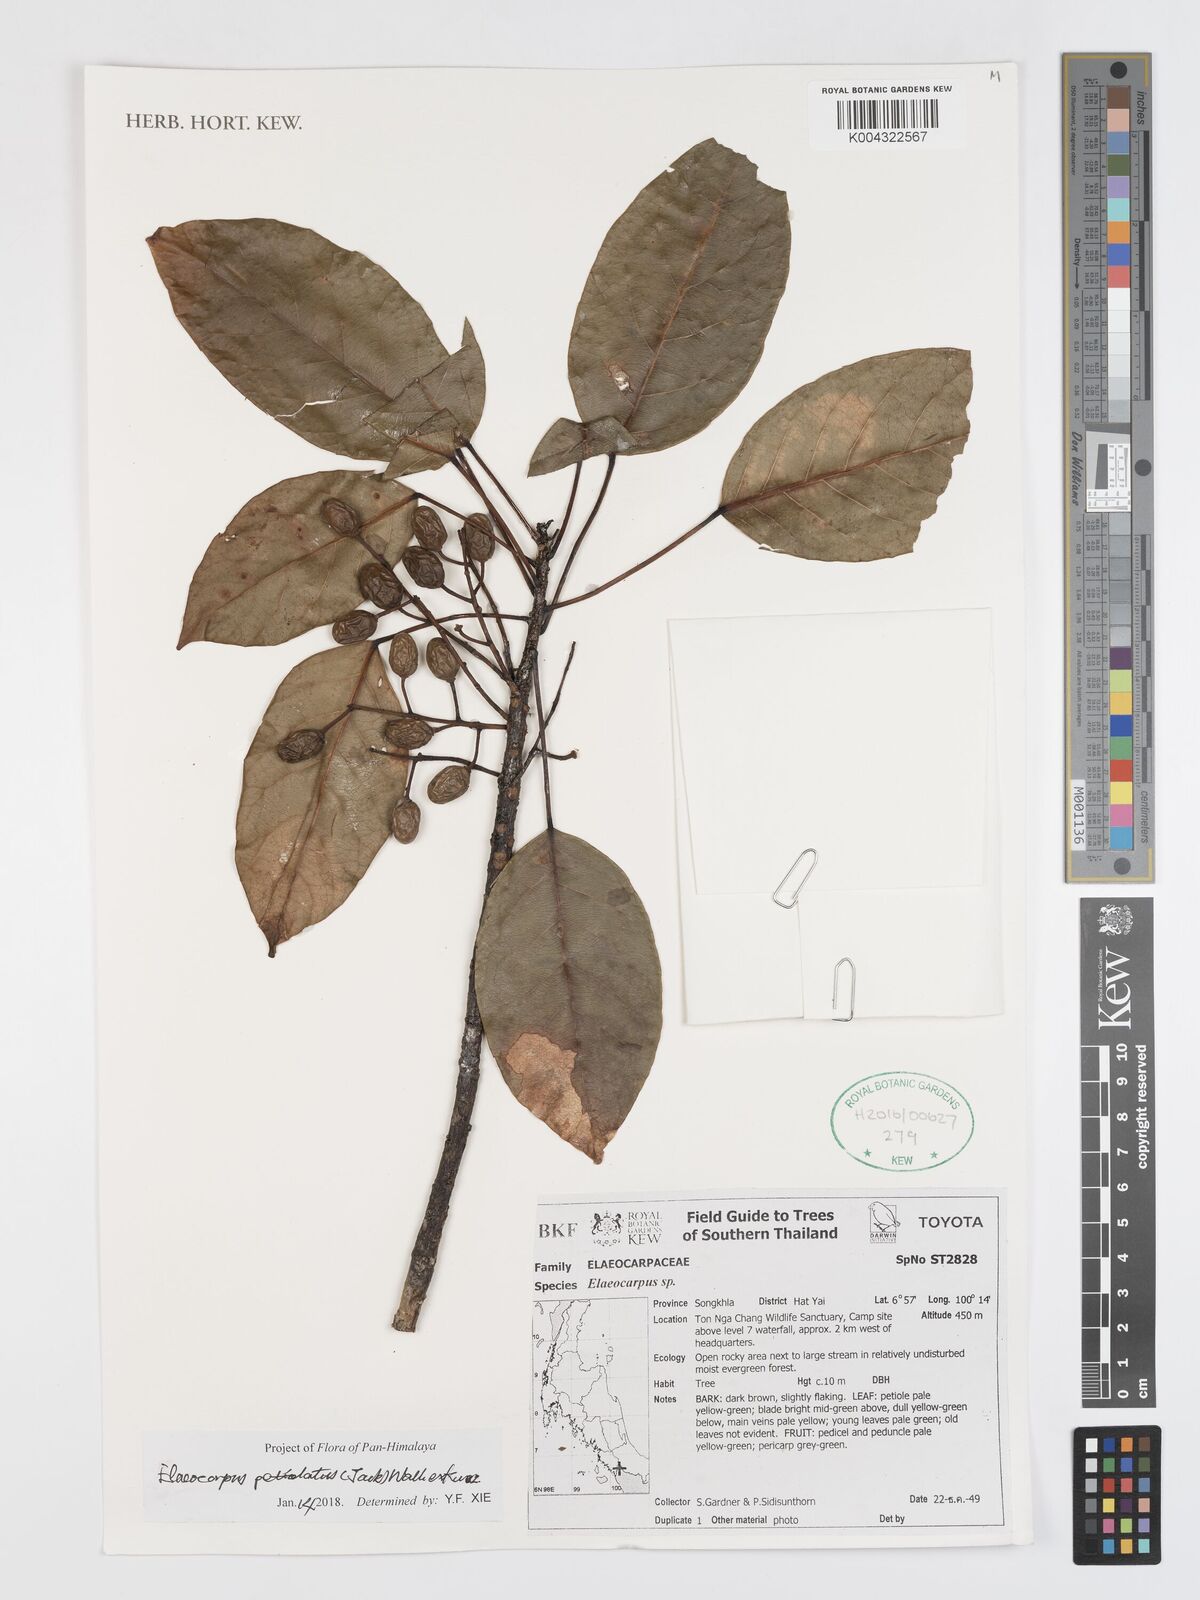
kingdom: Plantae
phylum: Tracheophyta
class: Magnoliopsida
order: Oxalidales
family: Elaeocarpaceae
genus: Elaeocarpus
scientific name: Elaeocarpus petiolatus
